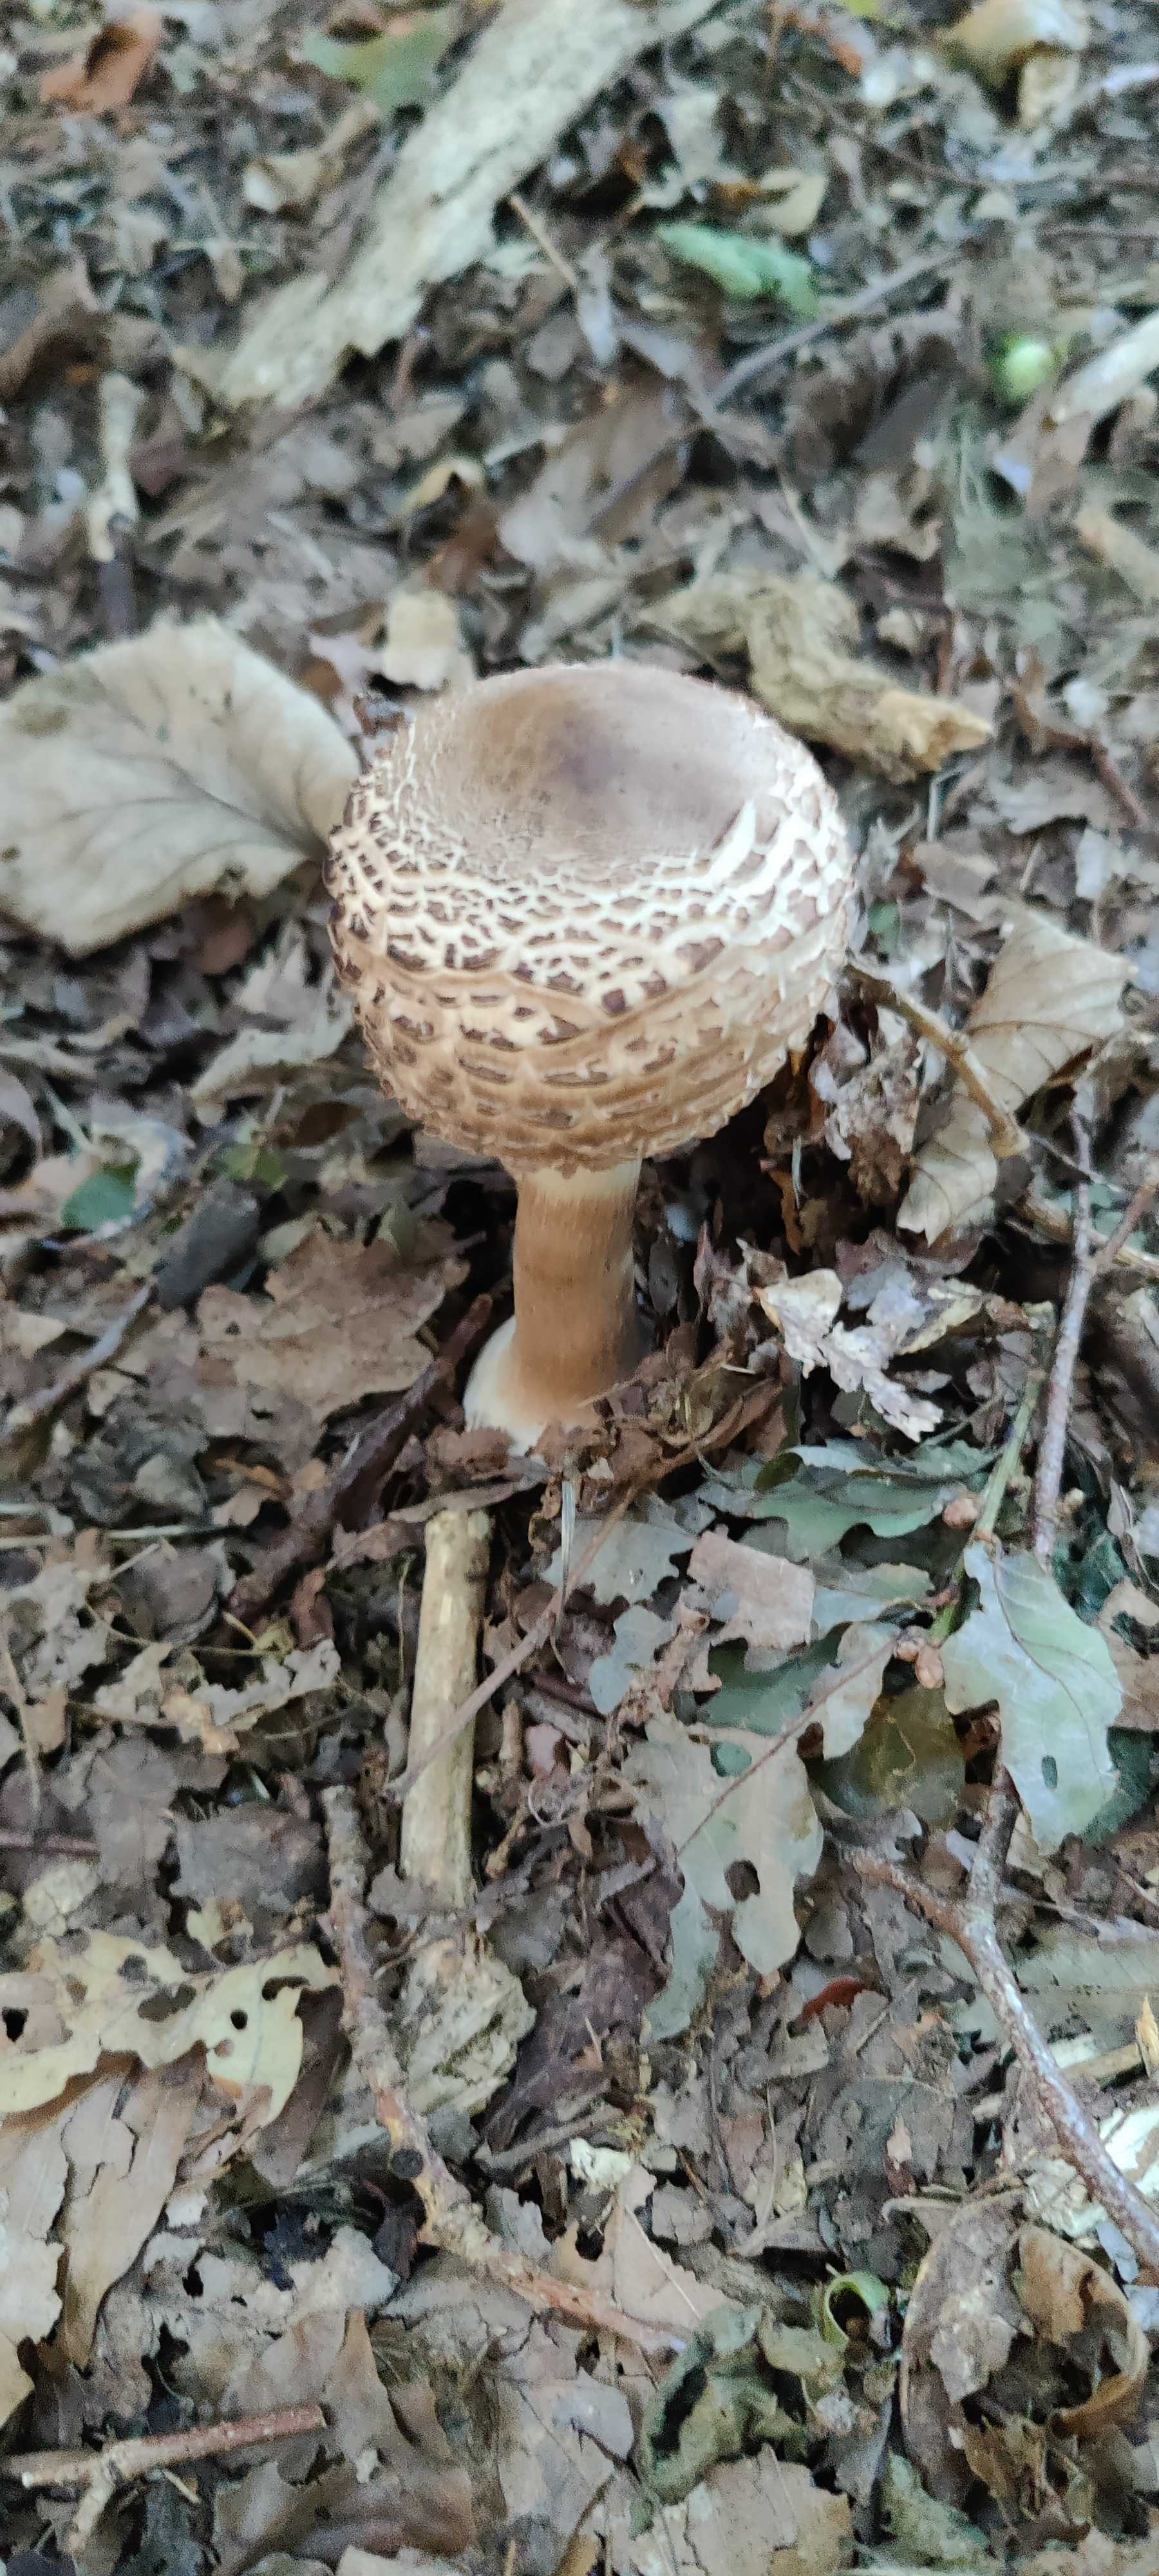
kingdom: Fungi
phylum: Basidiomycota
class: Agaricomycetes
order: Agaricales
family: Agaricaceae
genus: Chlorophyllum
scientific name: Chlorophyllum
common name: rabarberhat
